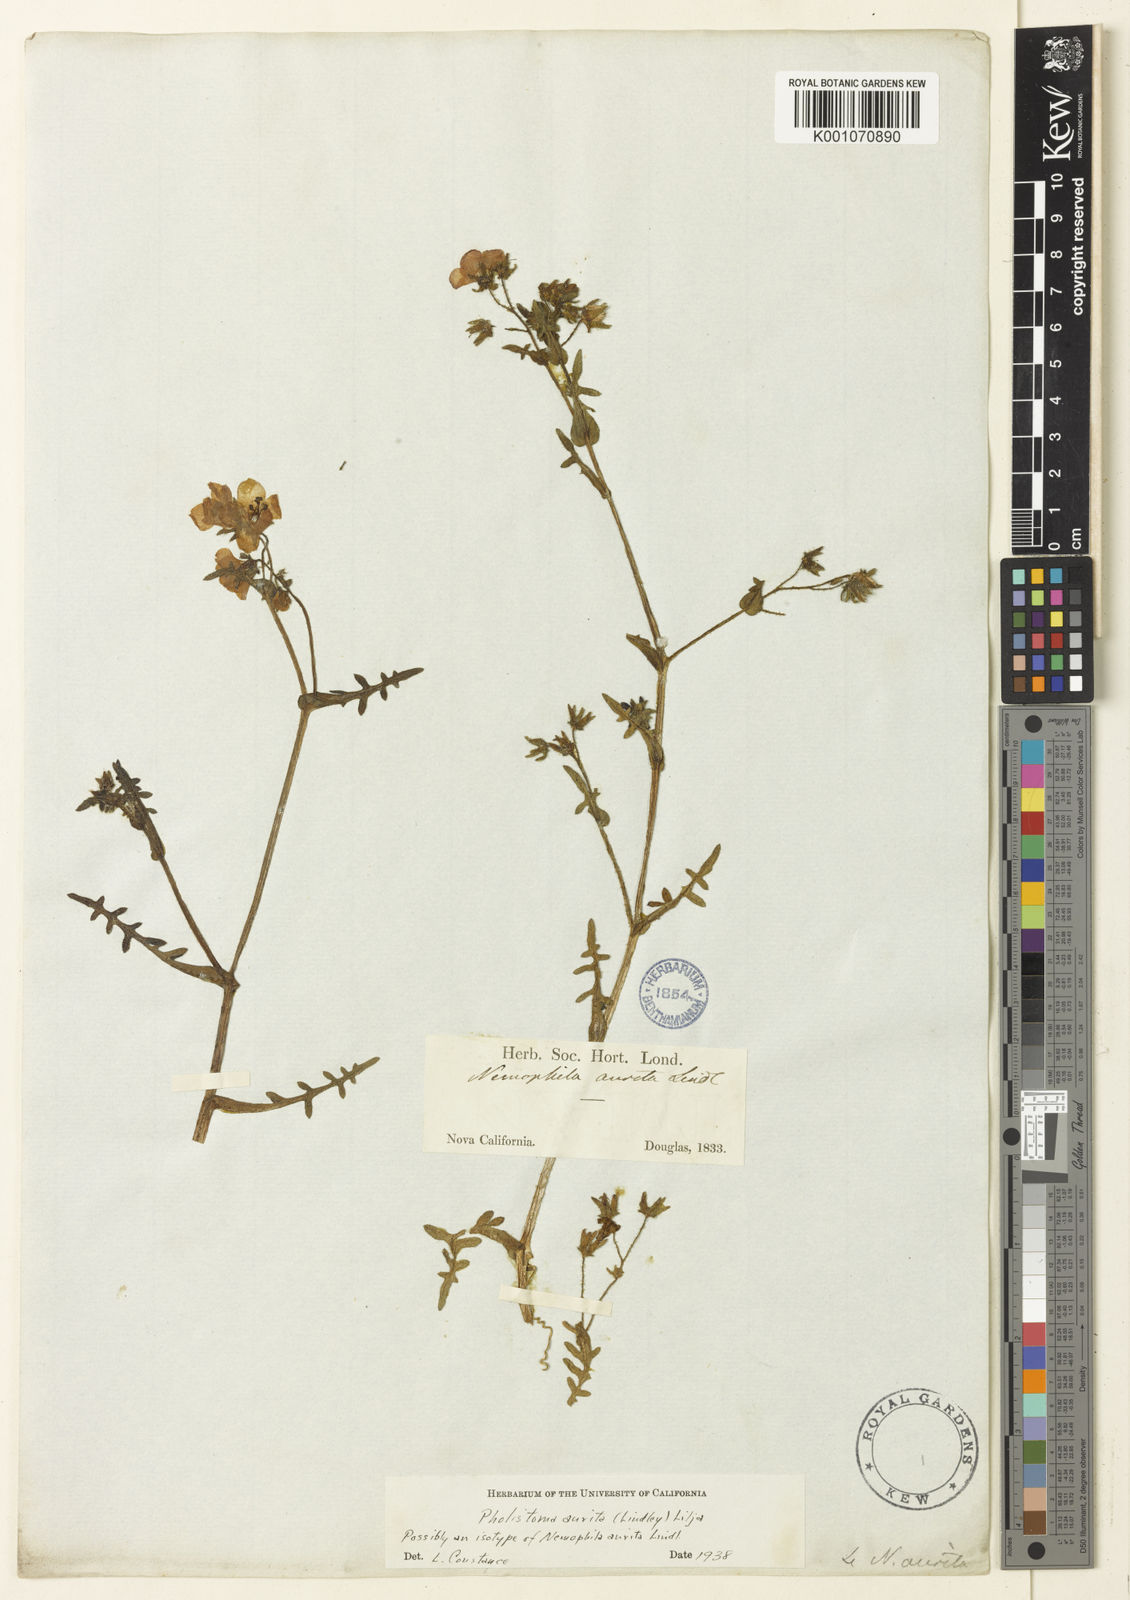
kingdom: Plantae
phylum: Tracheophyta
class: Magnoliopsida
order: Boraginales
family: Hydrophyllaceae
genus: Pholistoma
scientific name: Pholistoma auritum
